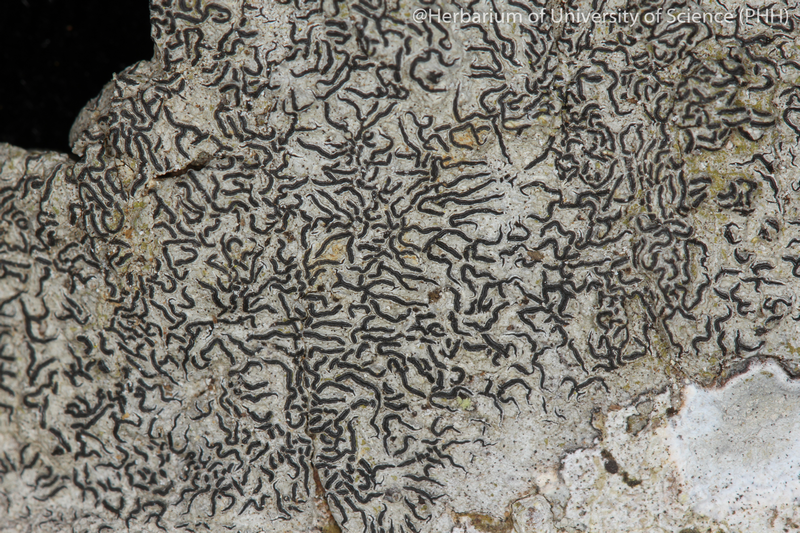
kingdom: Fungi
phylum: Ascomycota
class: Lecanoromycetes
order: Ostropales
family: Graphidaceae
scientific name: Graphidaceae
